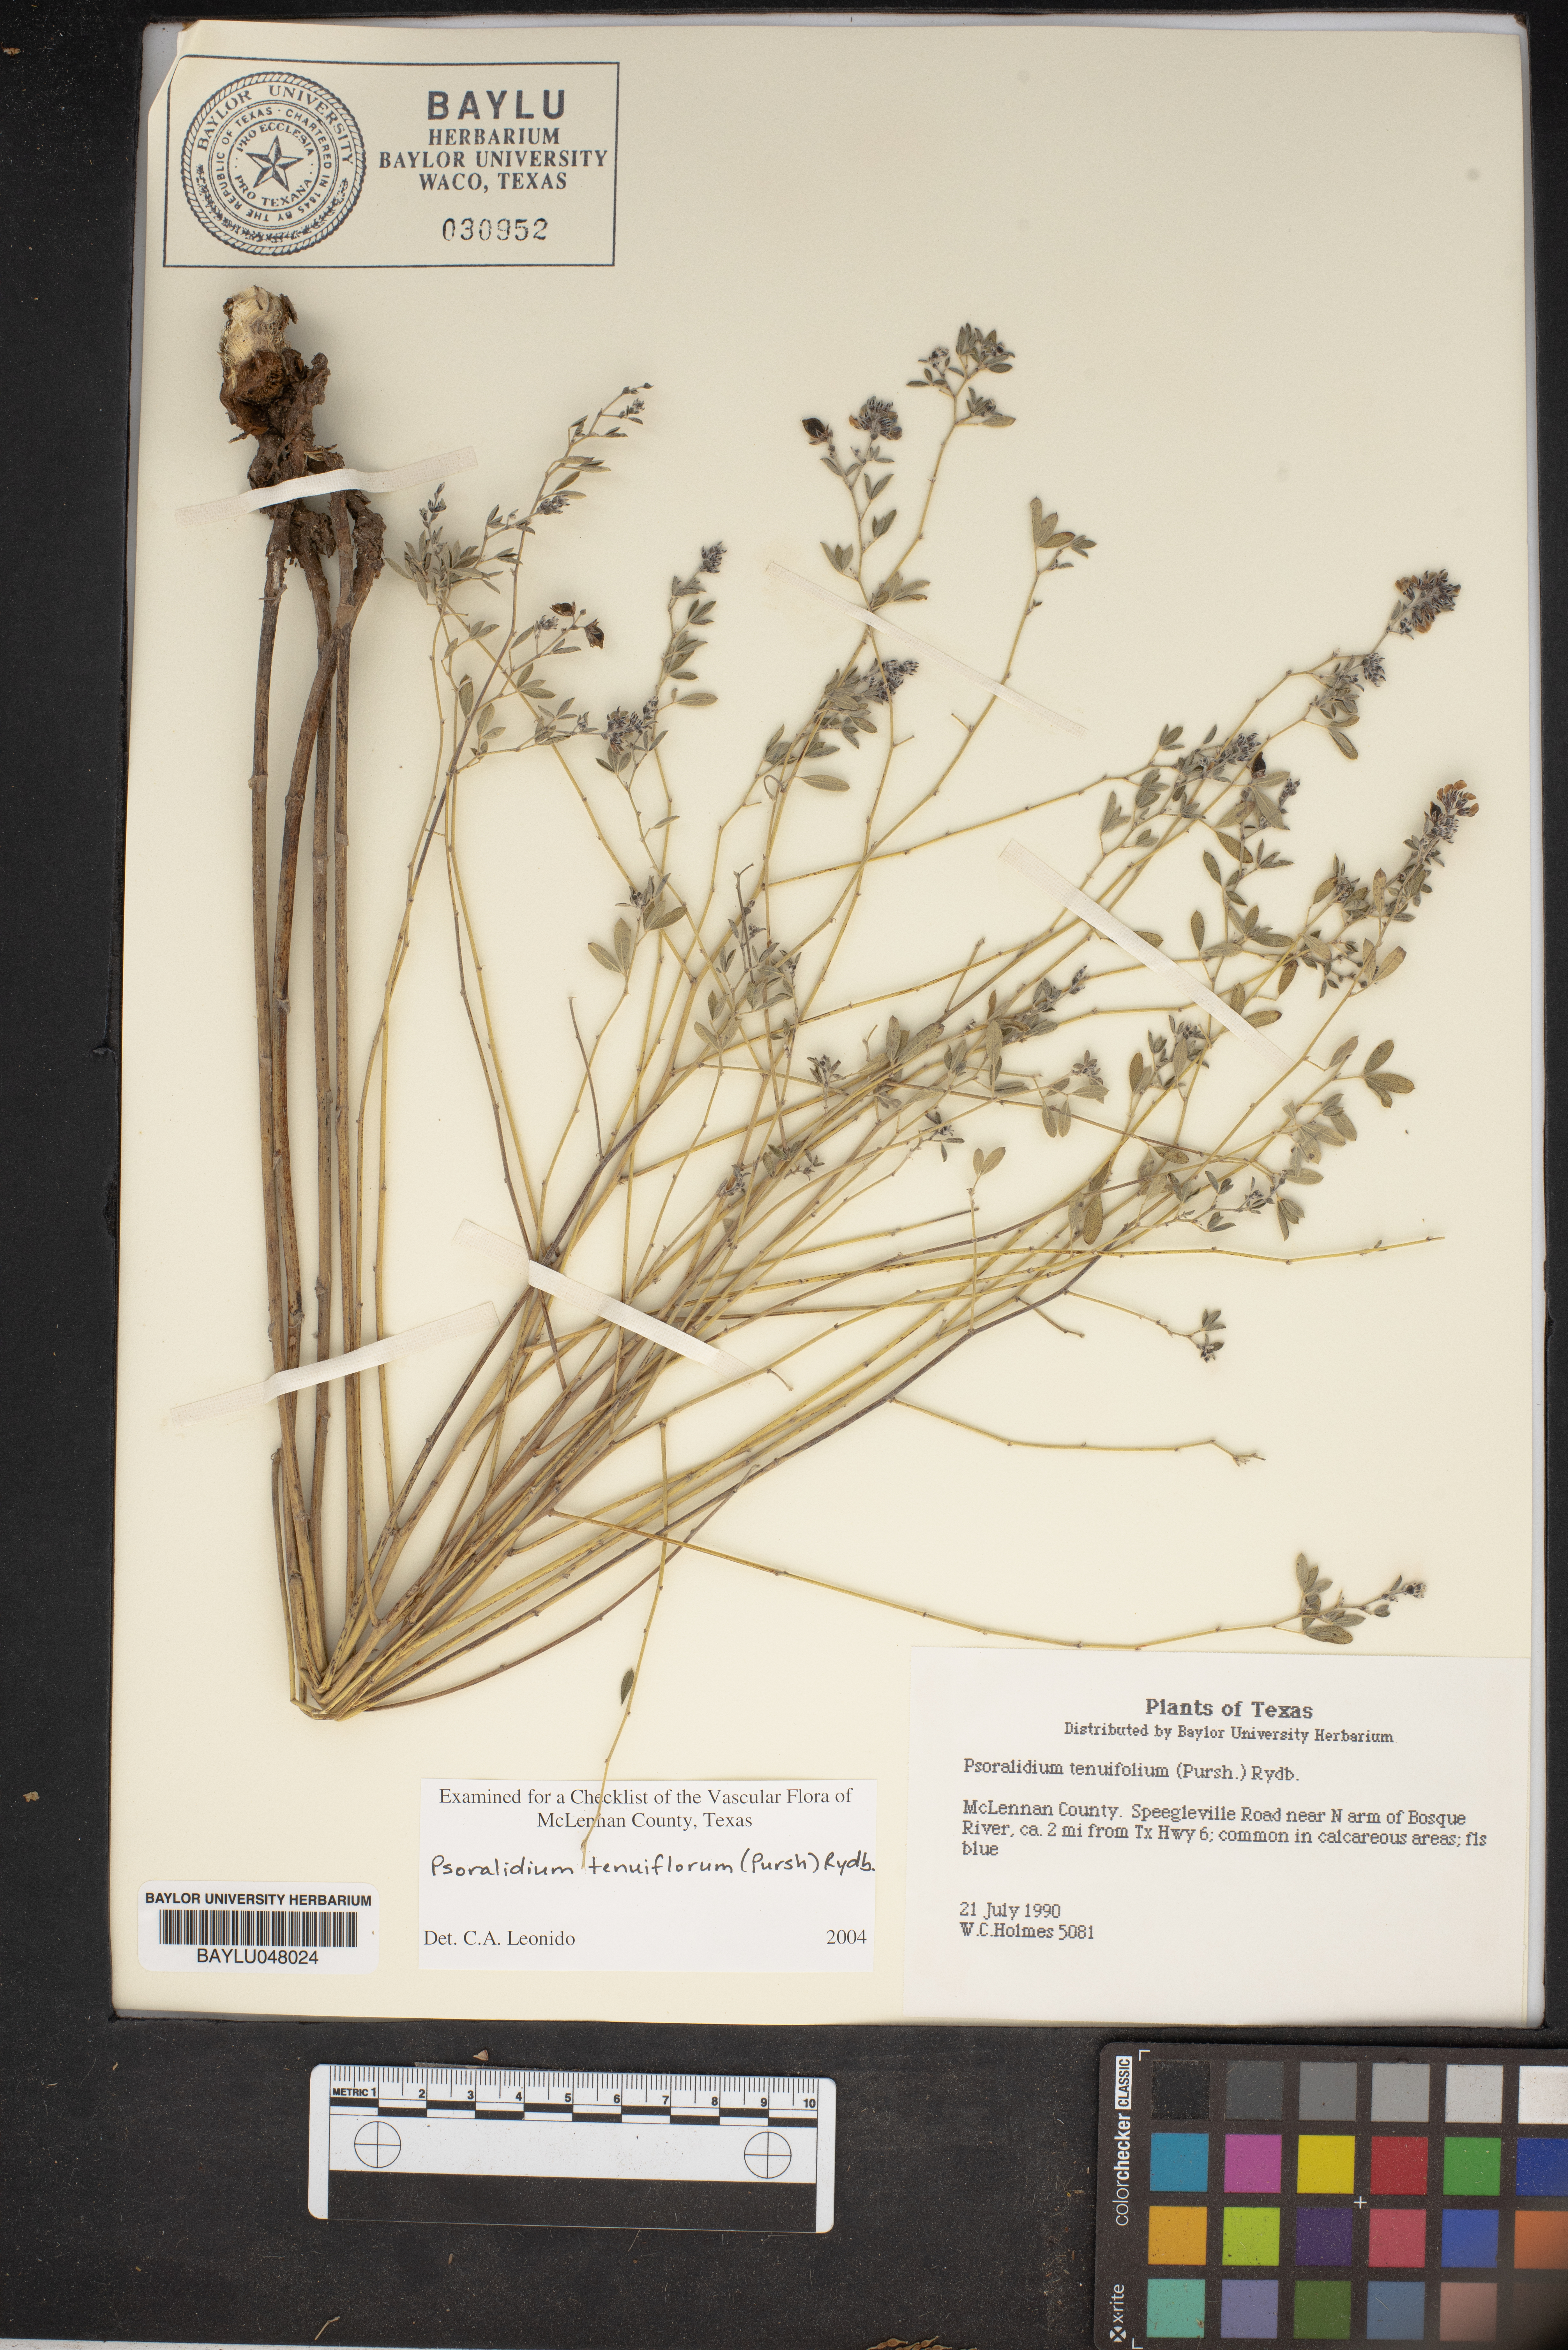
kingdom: Plantae
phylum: Tracheophyta
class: Magnoliopsida
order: Fabales
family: Fabaceae
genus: Pediomelum
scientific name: Pediomelum tenuiflorum
